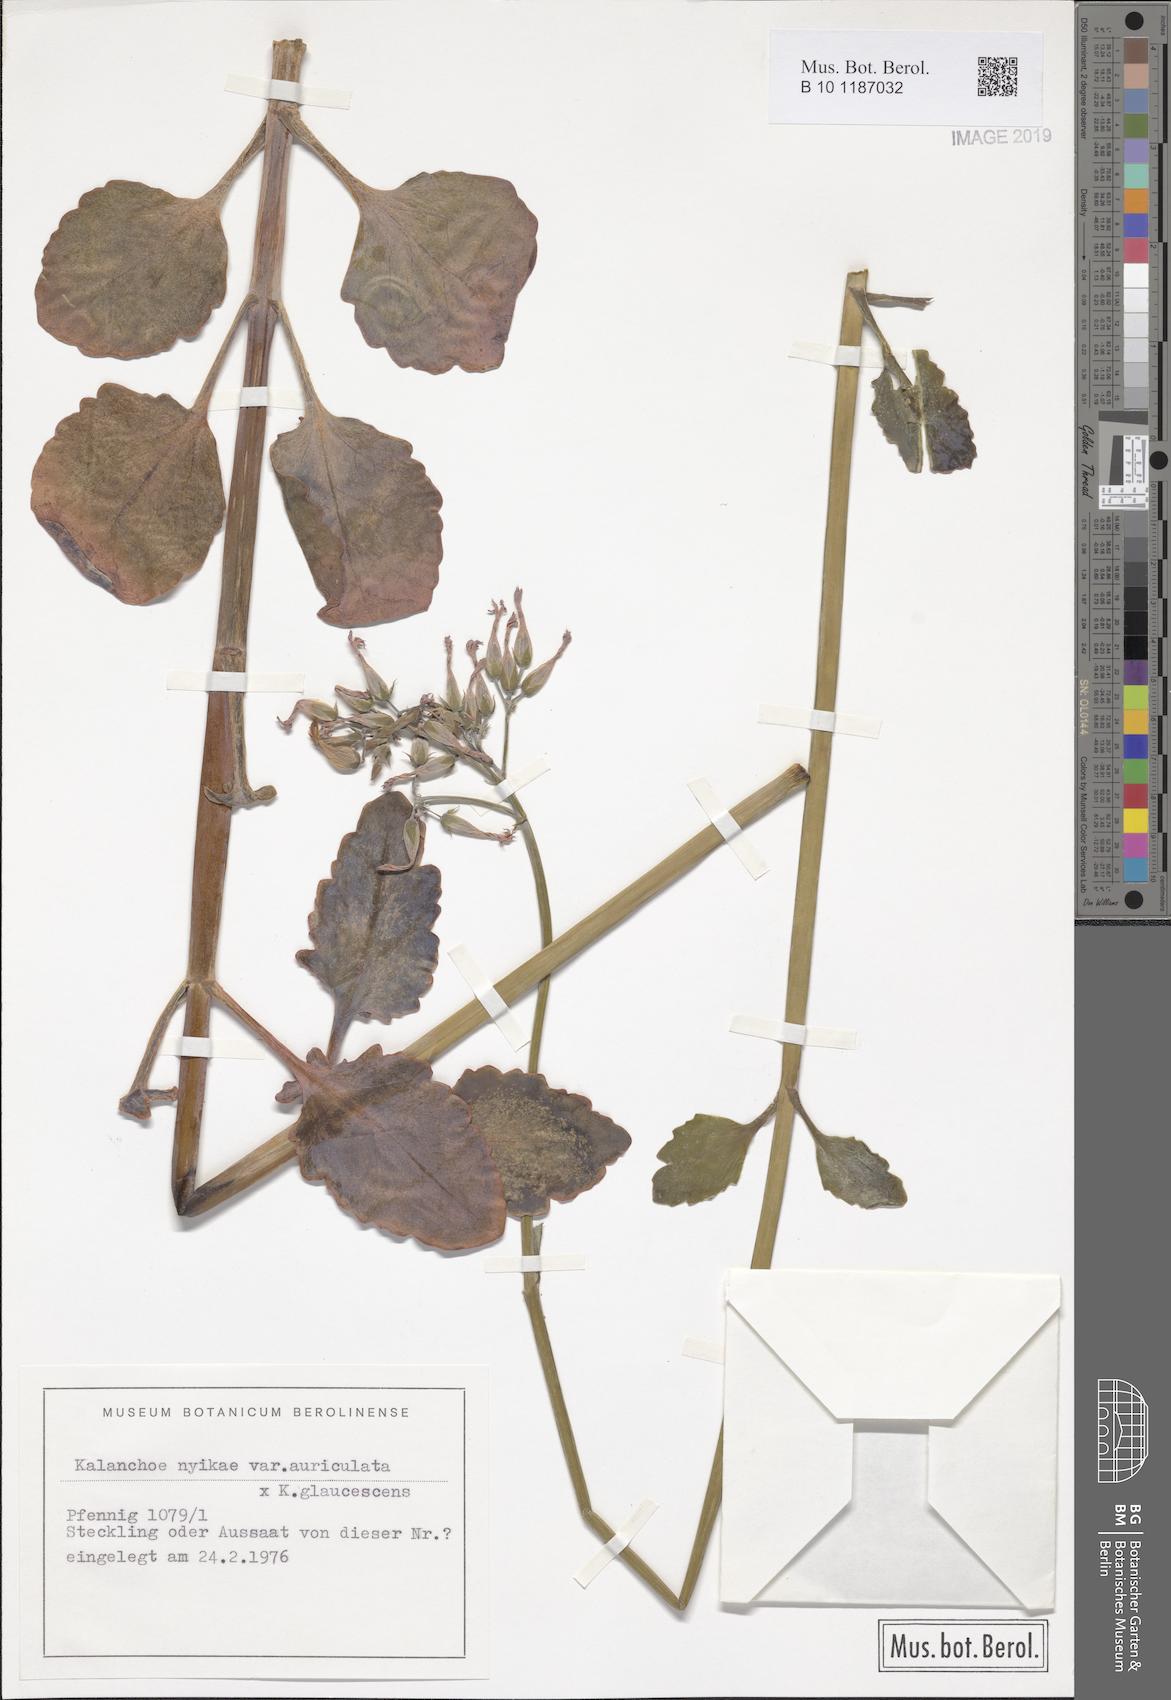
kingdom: Plantae
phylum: Tracheophyta
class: Magnoliopsida
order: Saxifragales
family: Crassulaceae
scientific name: Crassulaceae
